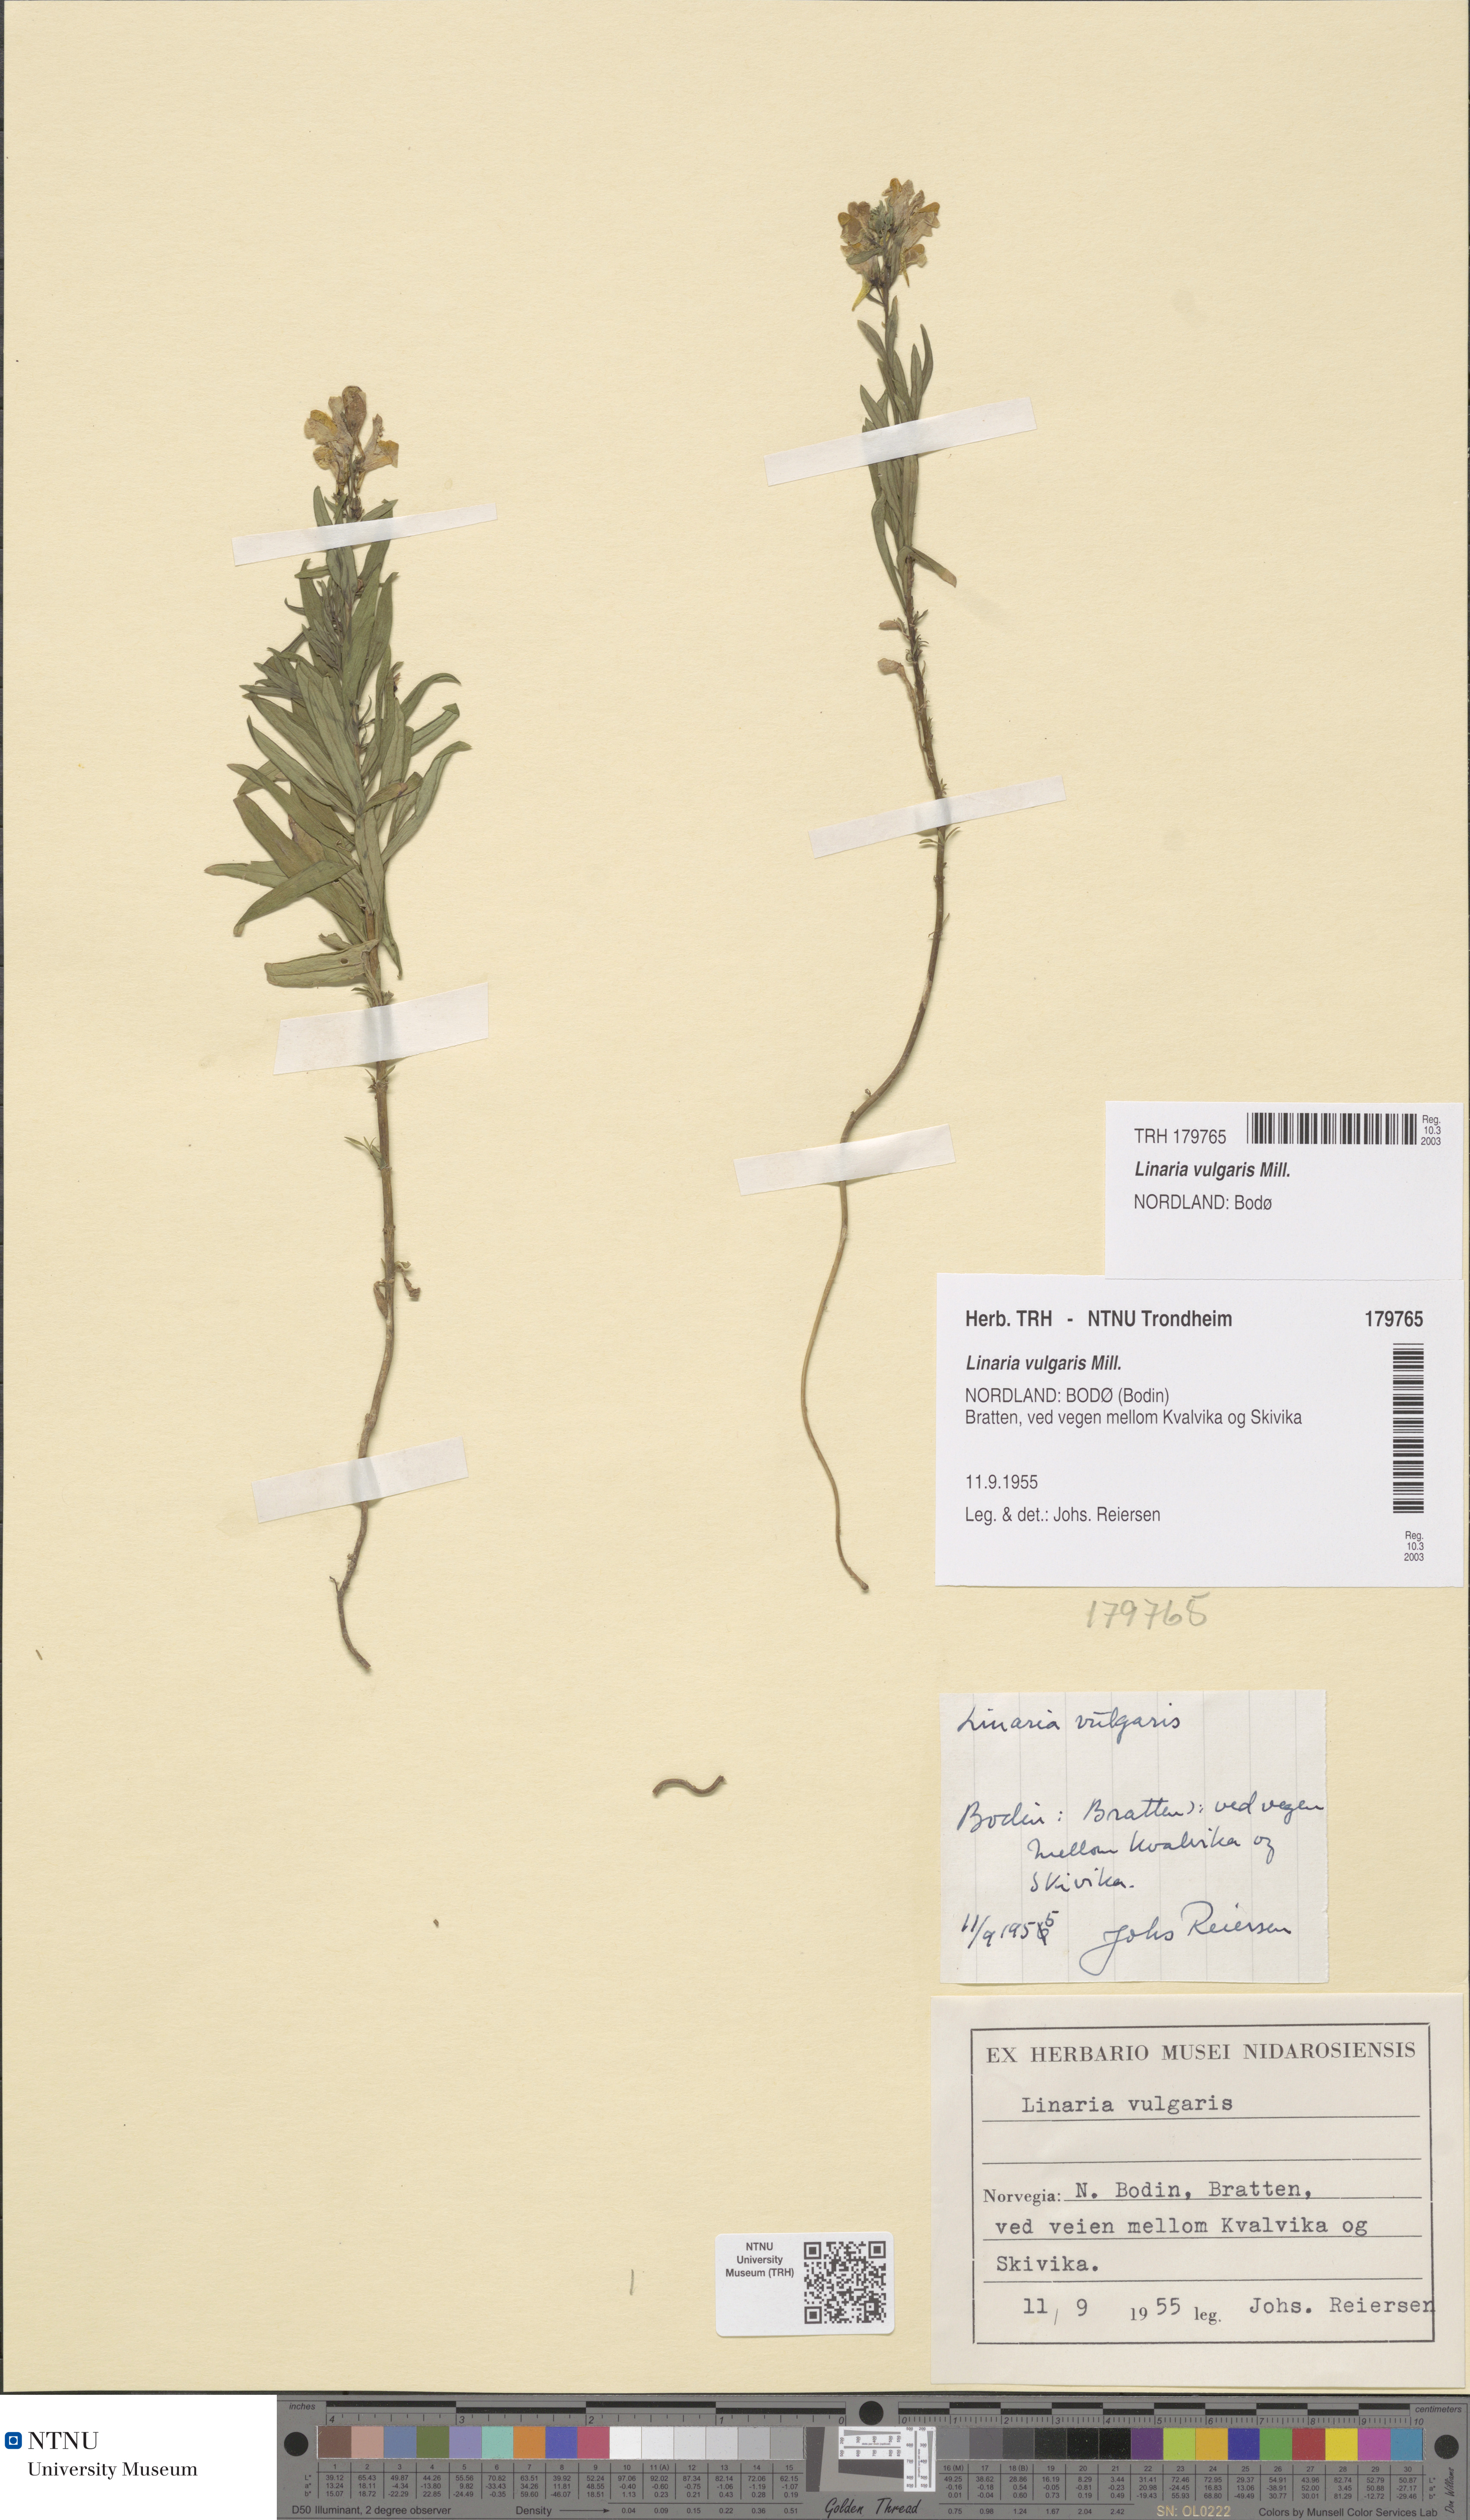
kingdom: Plantae
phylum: Tracheophyta
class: Magnoliopsida
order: Lamiales
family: Plantaginaceae
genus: Linaria
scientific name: Linaria vulgaris
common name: Butter and eggs
